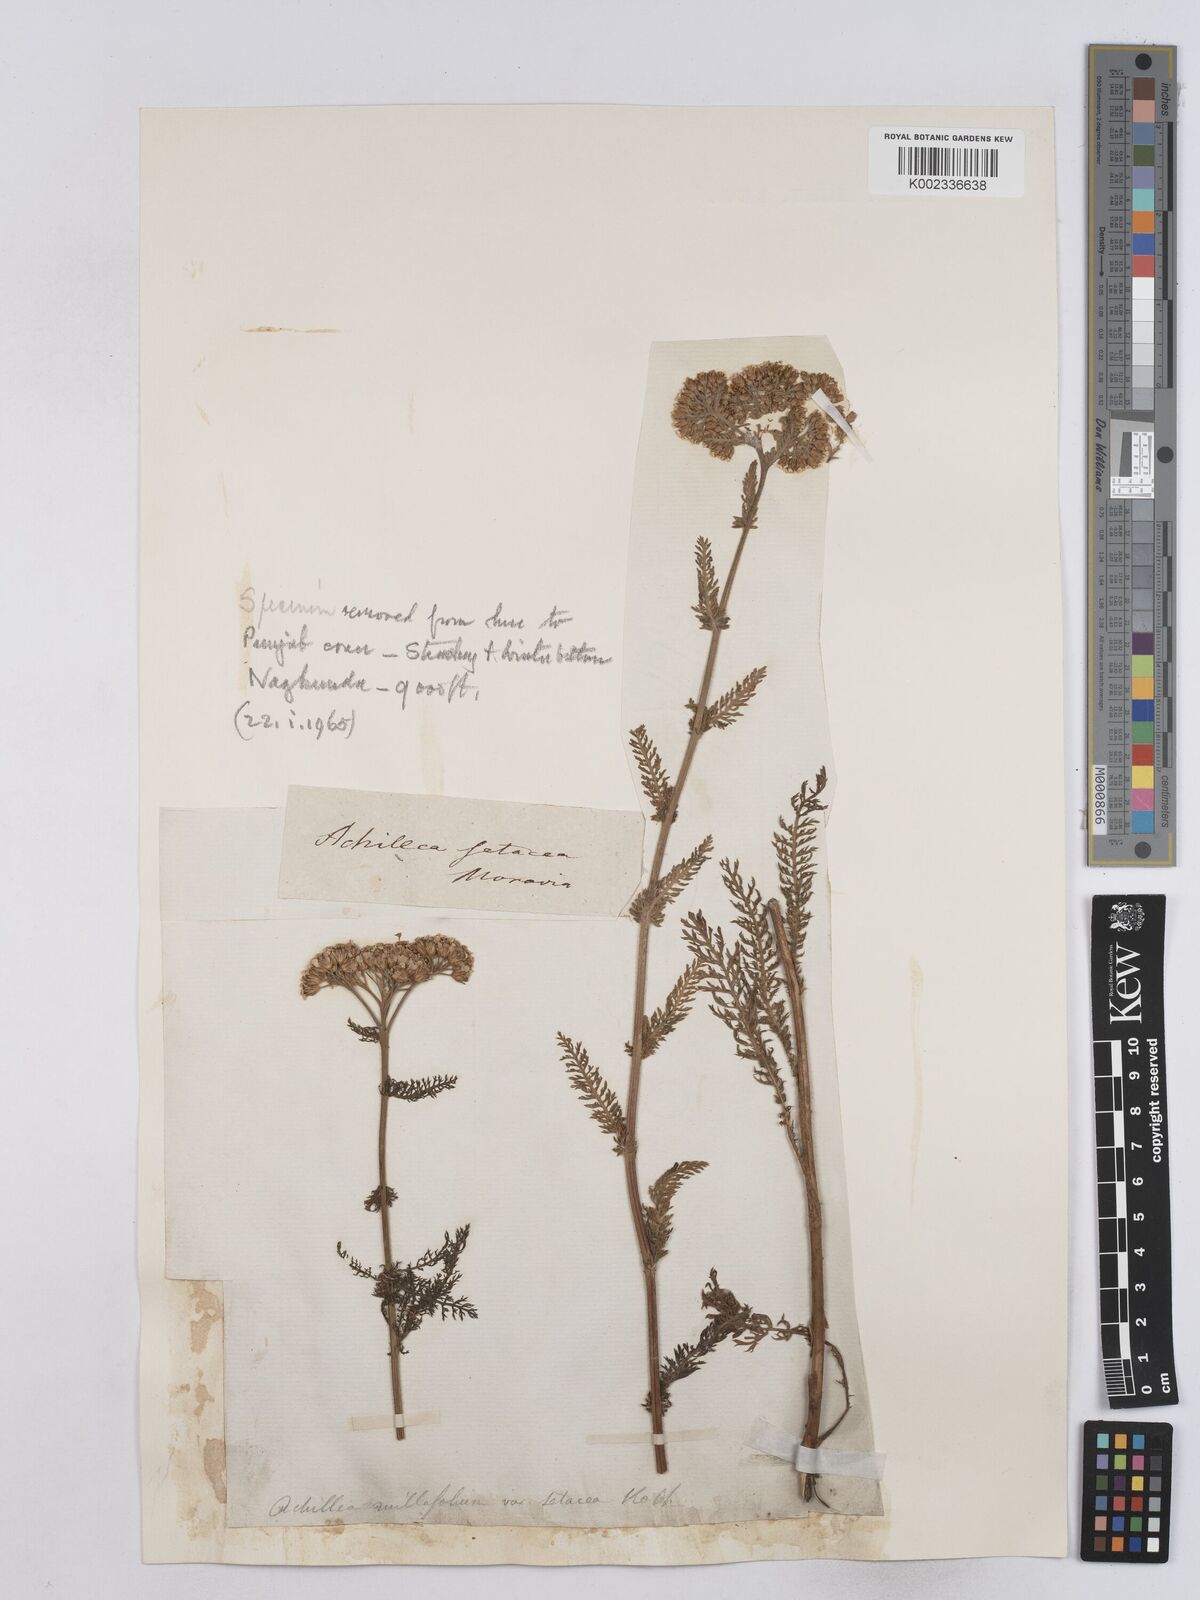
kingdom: Plantae
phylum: Tracheophyta
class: Magnoliopsida
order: Asterales
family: Asteraceae
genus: Achillea
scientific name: Achillea setacea
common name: Bristly yarrow
